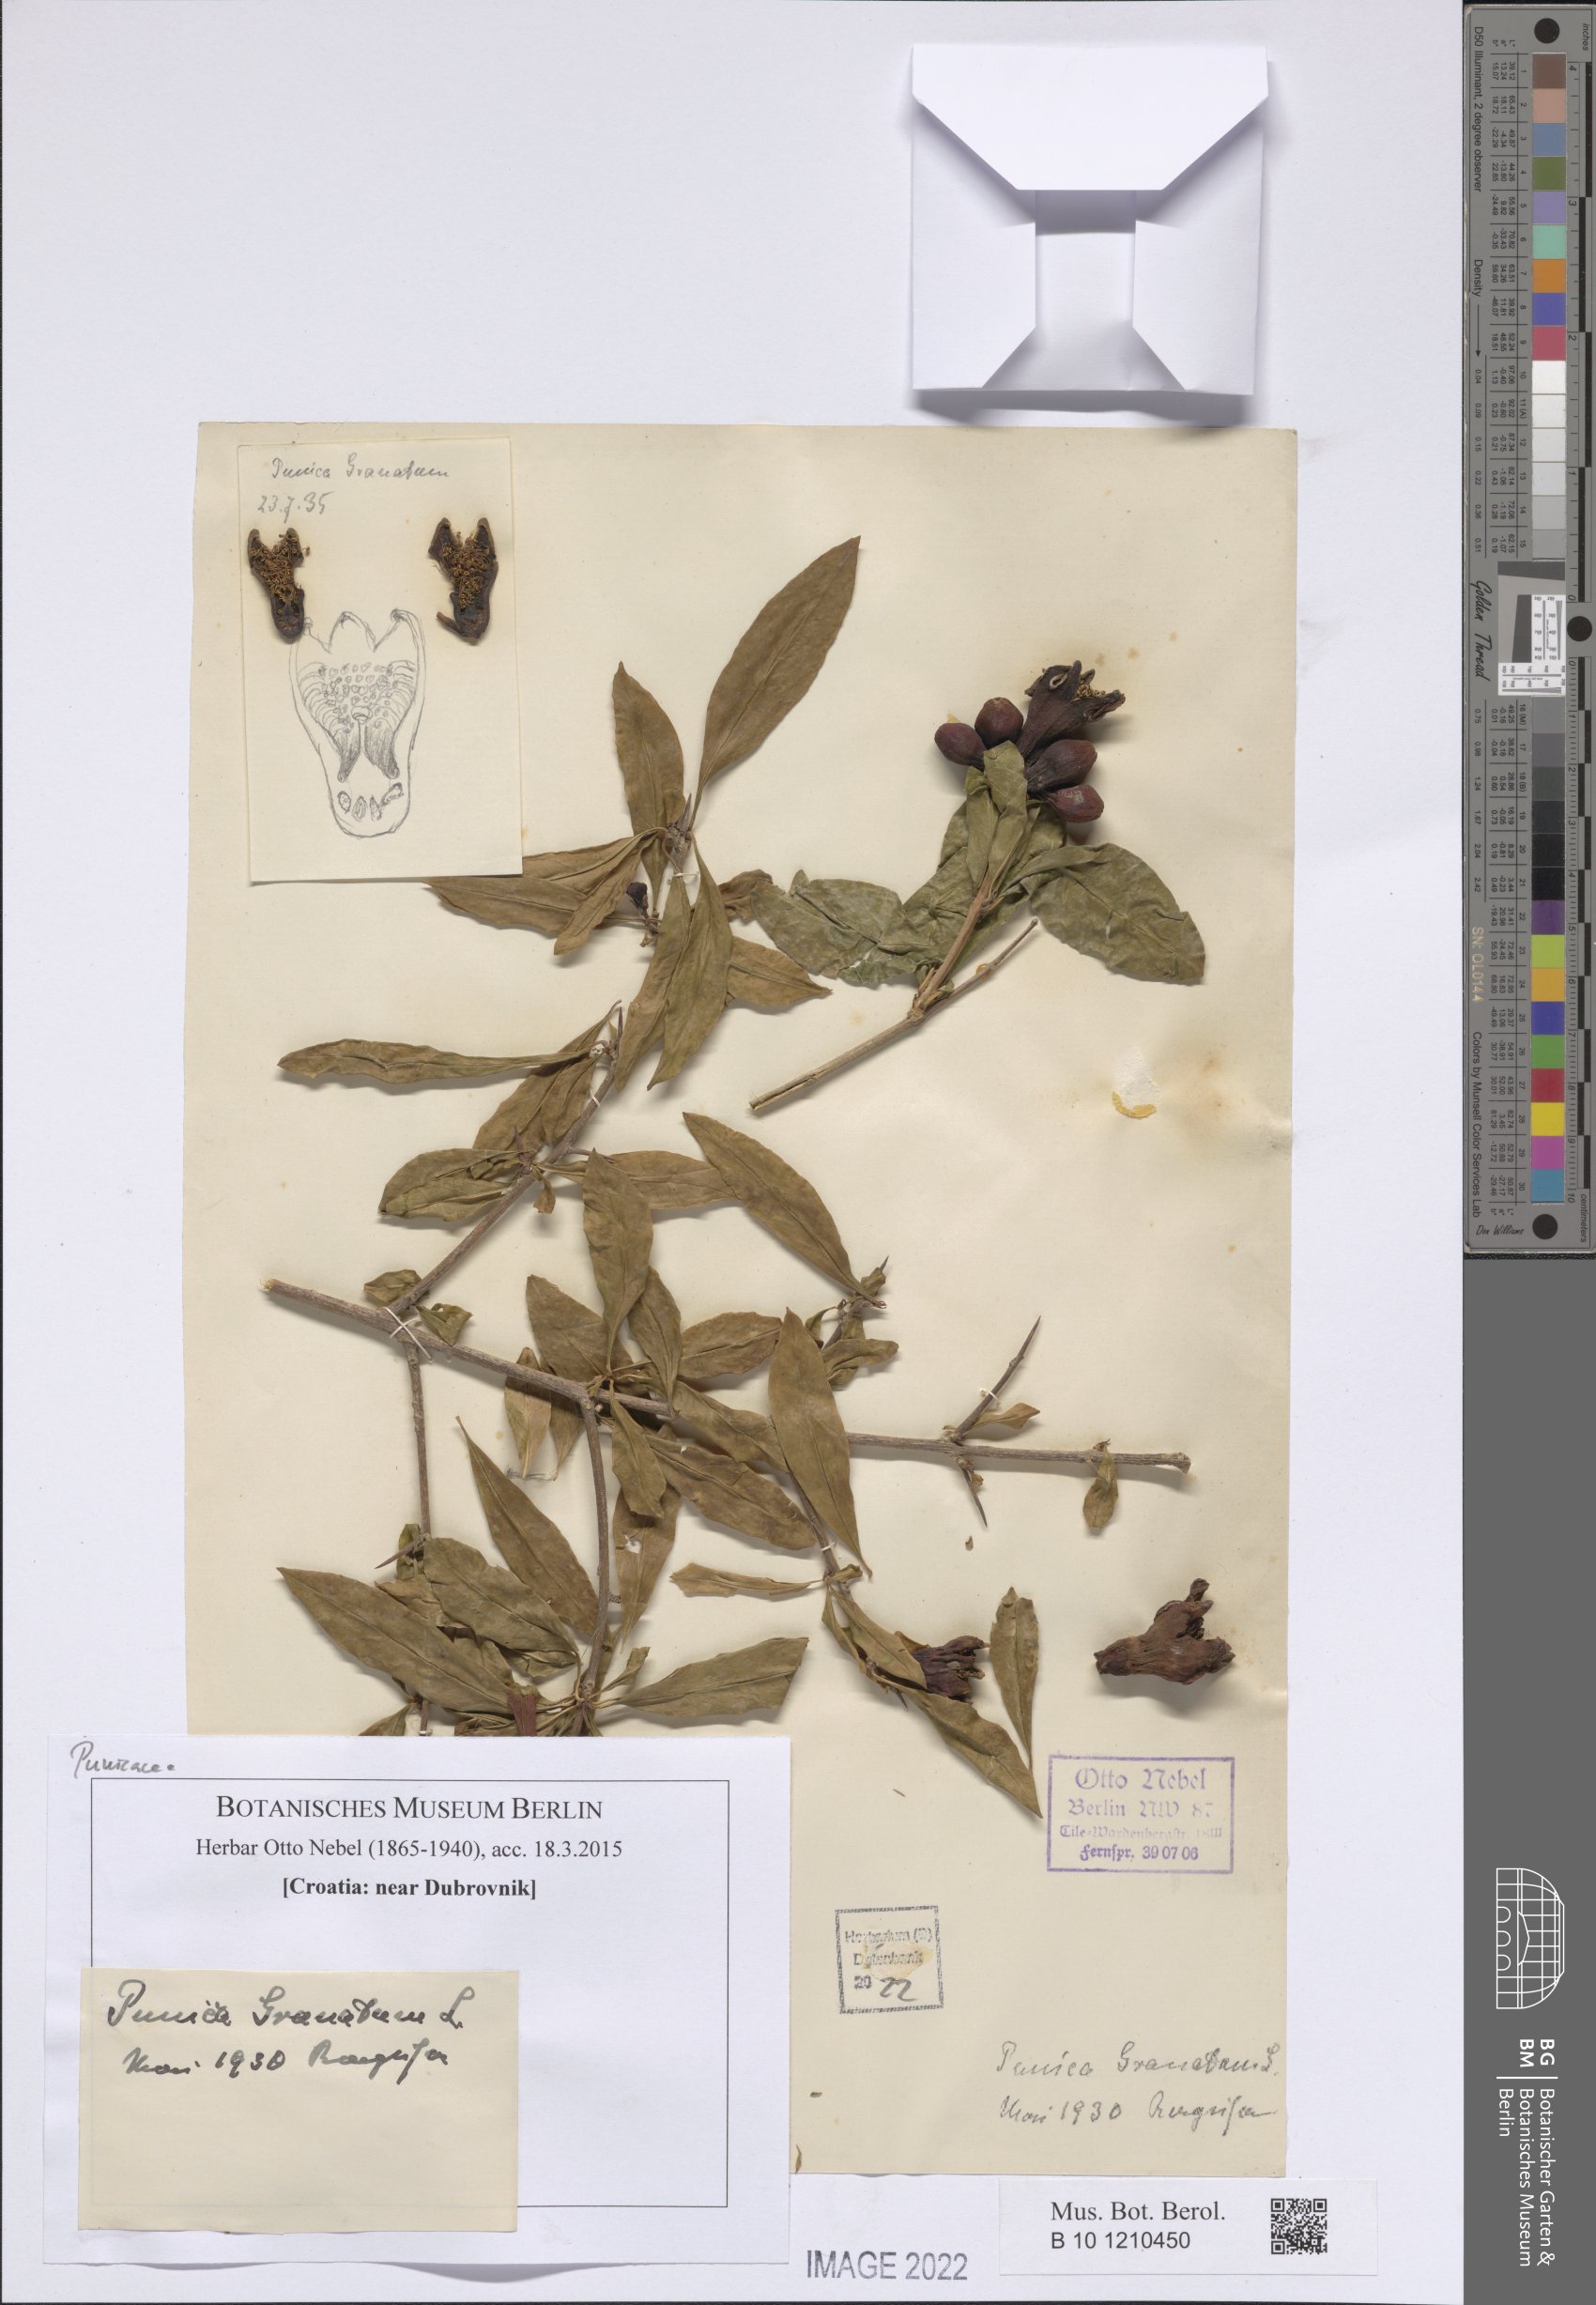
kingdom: Plantae
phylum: Tracheophyta
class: Magnoliopsida
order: Myrtales
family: Lythraceae
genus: Punica
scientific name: Punica granatum
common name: Pomegranate
